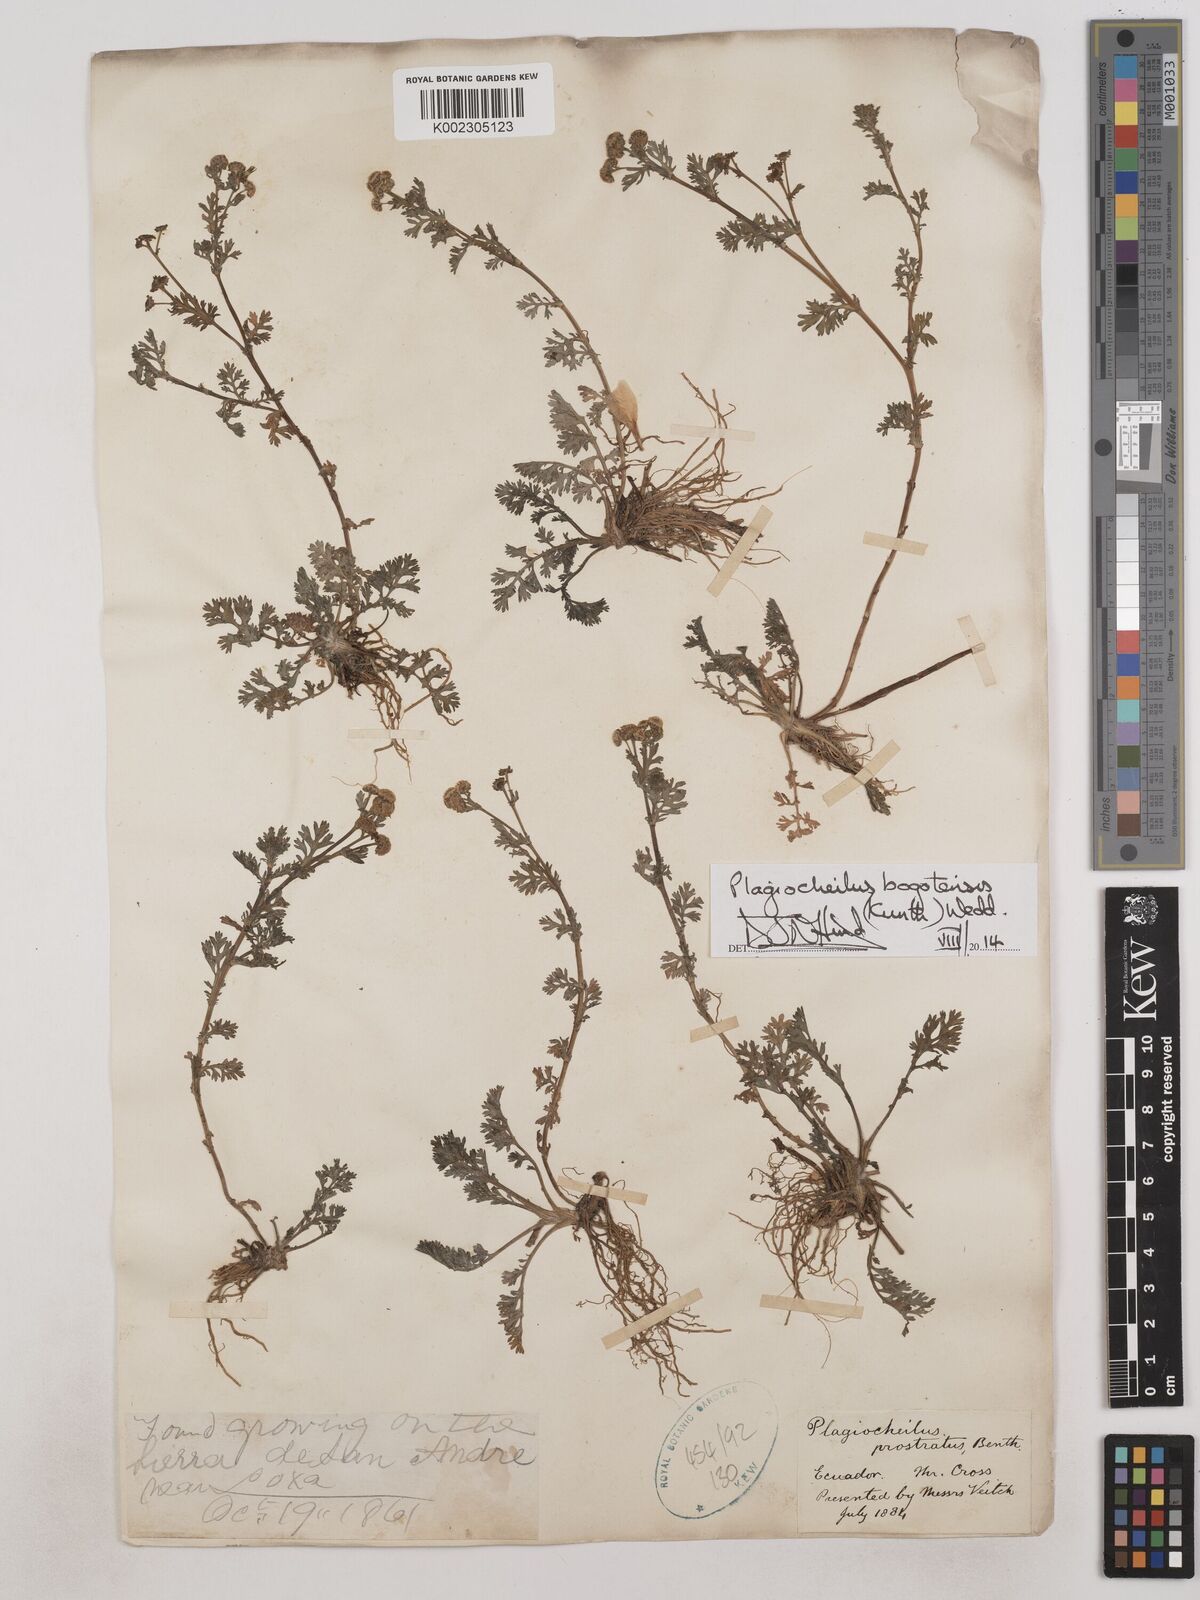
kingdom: Plantae
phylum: Tracheophyta
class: Magnoliopsida
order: Asterales
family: Asteraceae
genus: Plagiocheilus
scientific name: Plagiocheilus bogotensis
